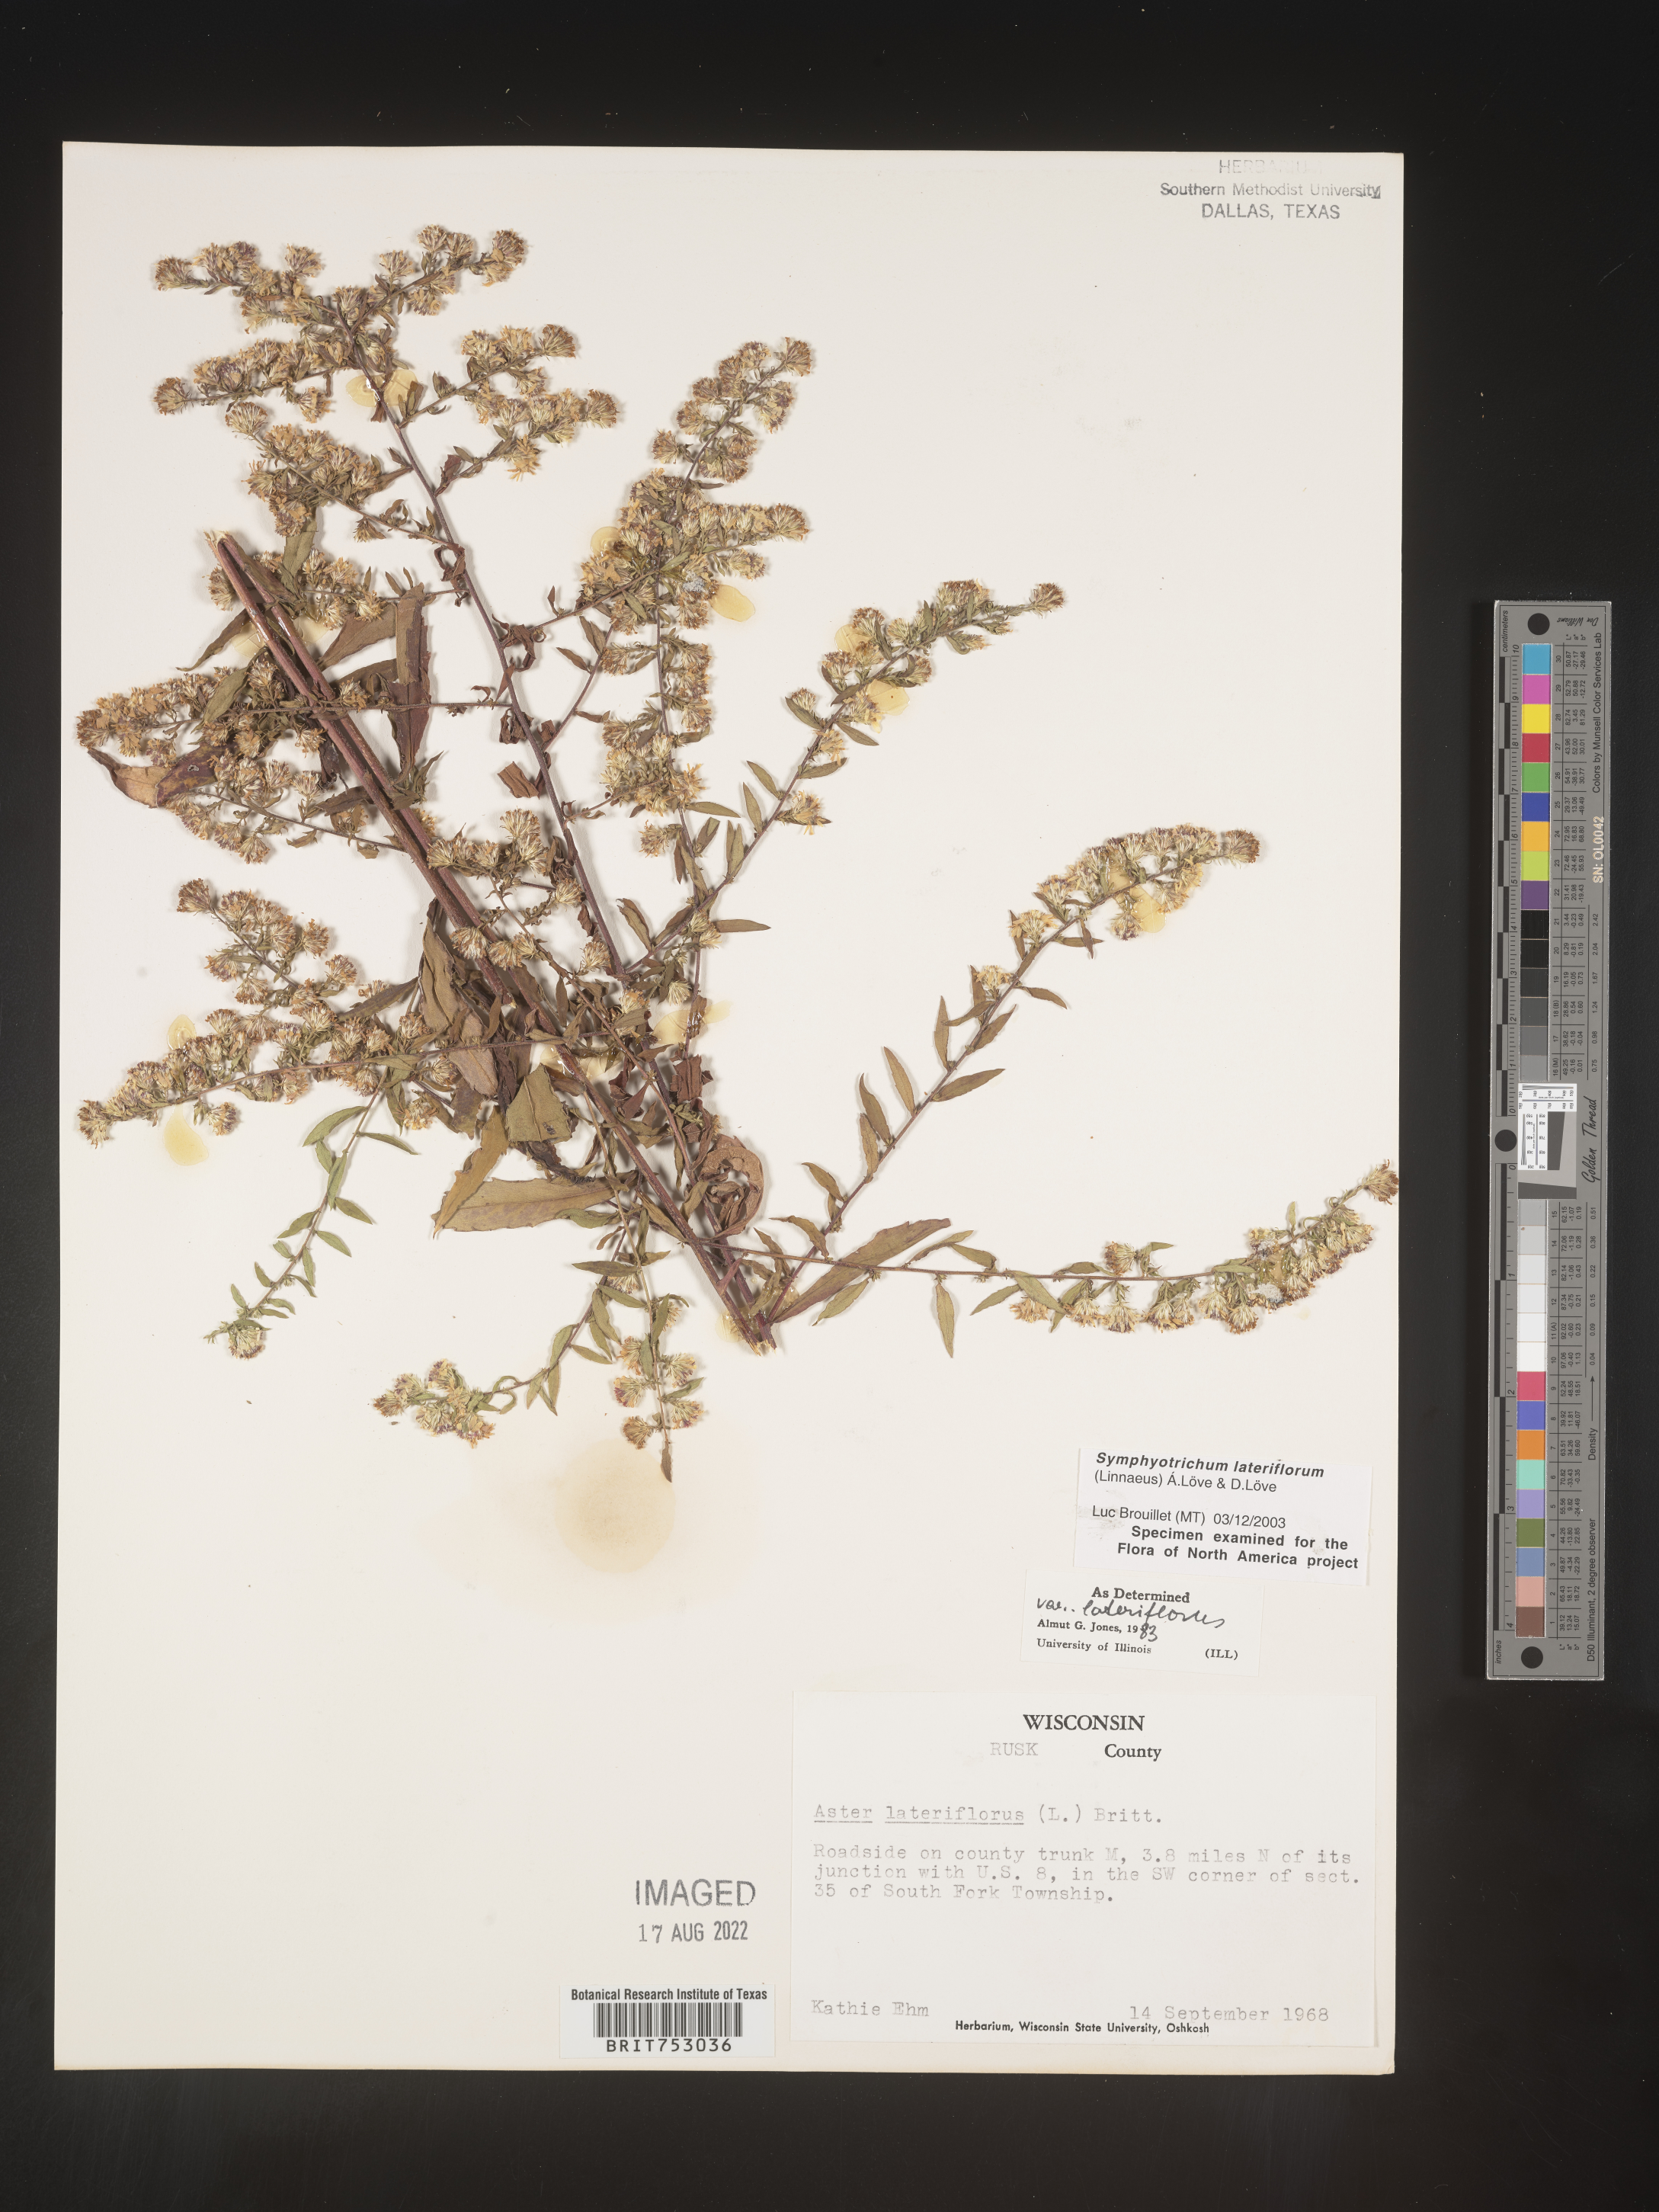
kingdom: Plantae
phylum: Tracheophyta
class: Magnoliopsida
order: Asterales
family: Asteraceae
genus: Symphyotrichum
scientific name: Symphyotrichum lateriflorum
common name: Calico aster
